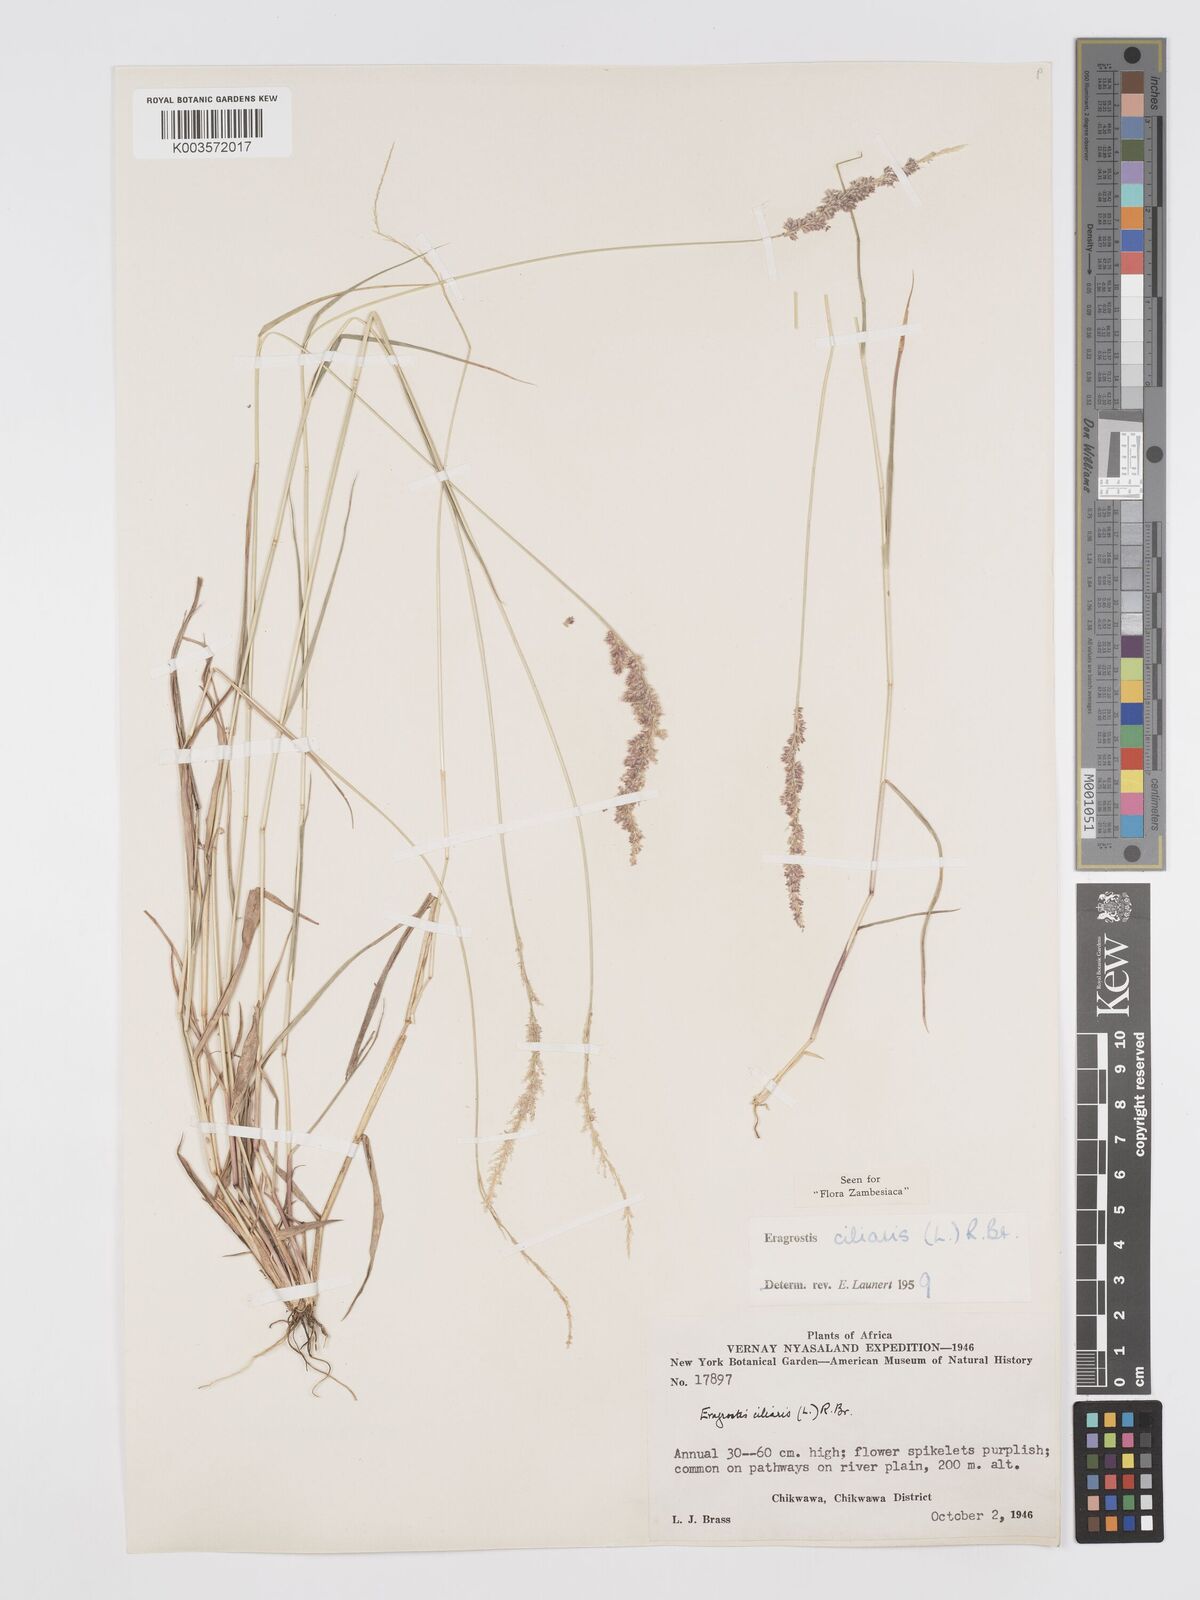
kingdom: Plantae
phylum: Tracheophyta
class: Liliopsida
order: Poales
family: Poaceae
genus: Eragrostis
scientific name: Eragrostis ciliaris
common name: Gophertail lovegrass
